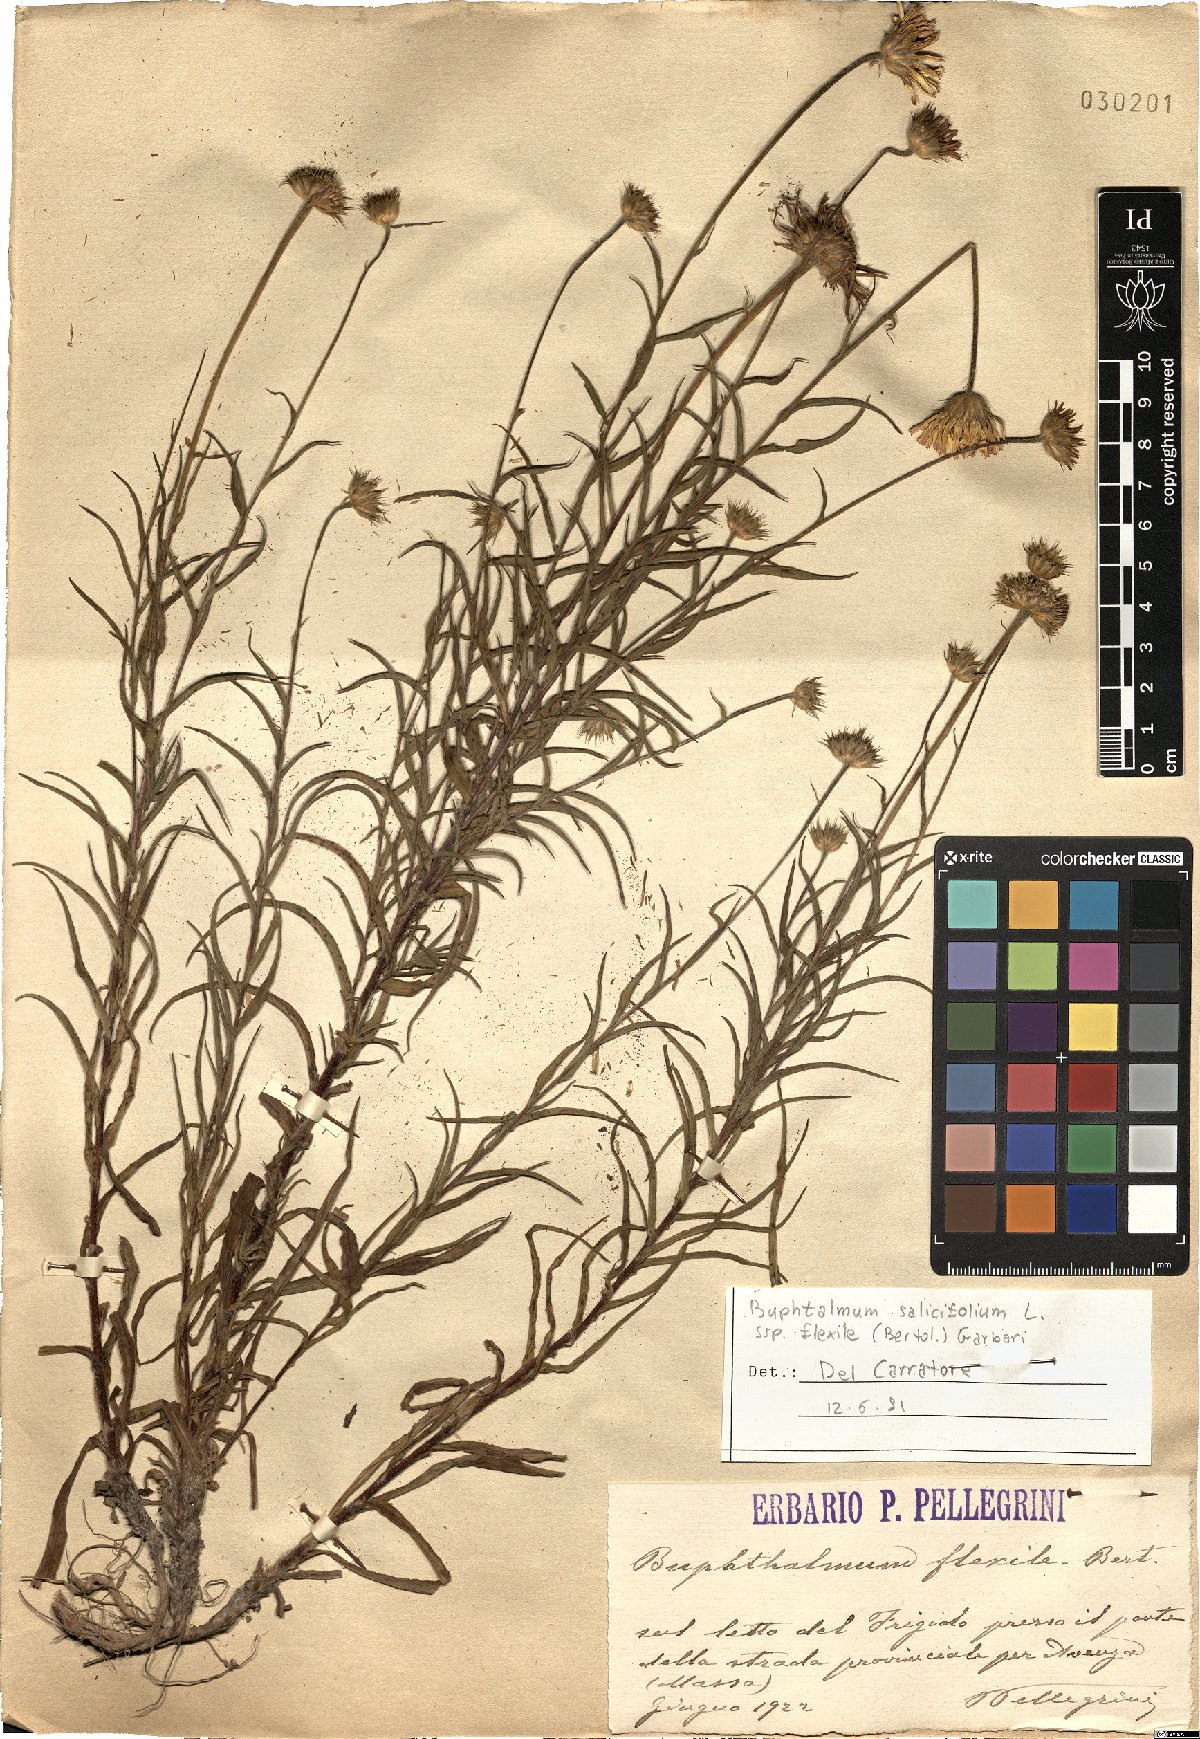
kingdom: Plantae
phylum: Tracheophyta
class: Magnoliopsida
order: Asterales
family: Asteraceae
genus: Buphthalmum
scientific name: Buphthalmum salicifolium
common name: Willow-leaved yellow-oxeye
